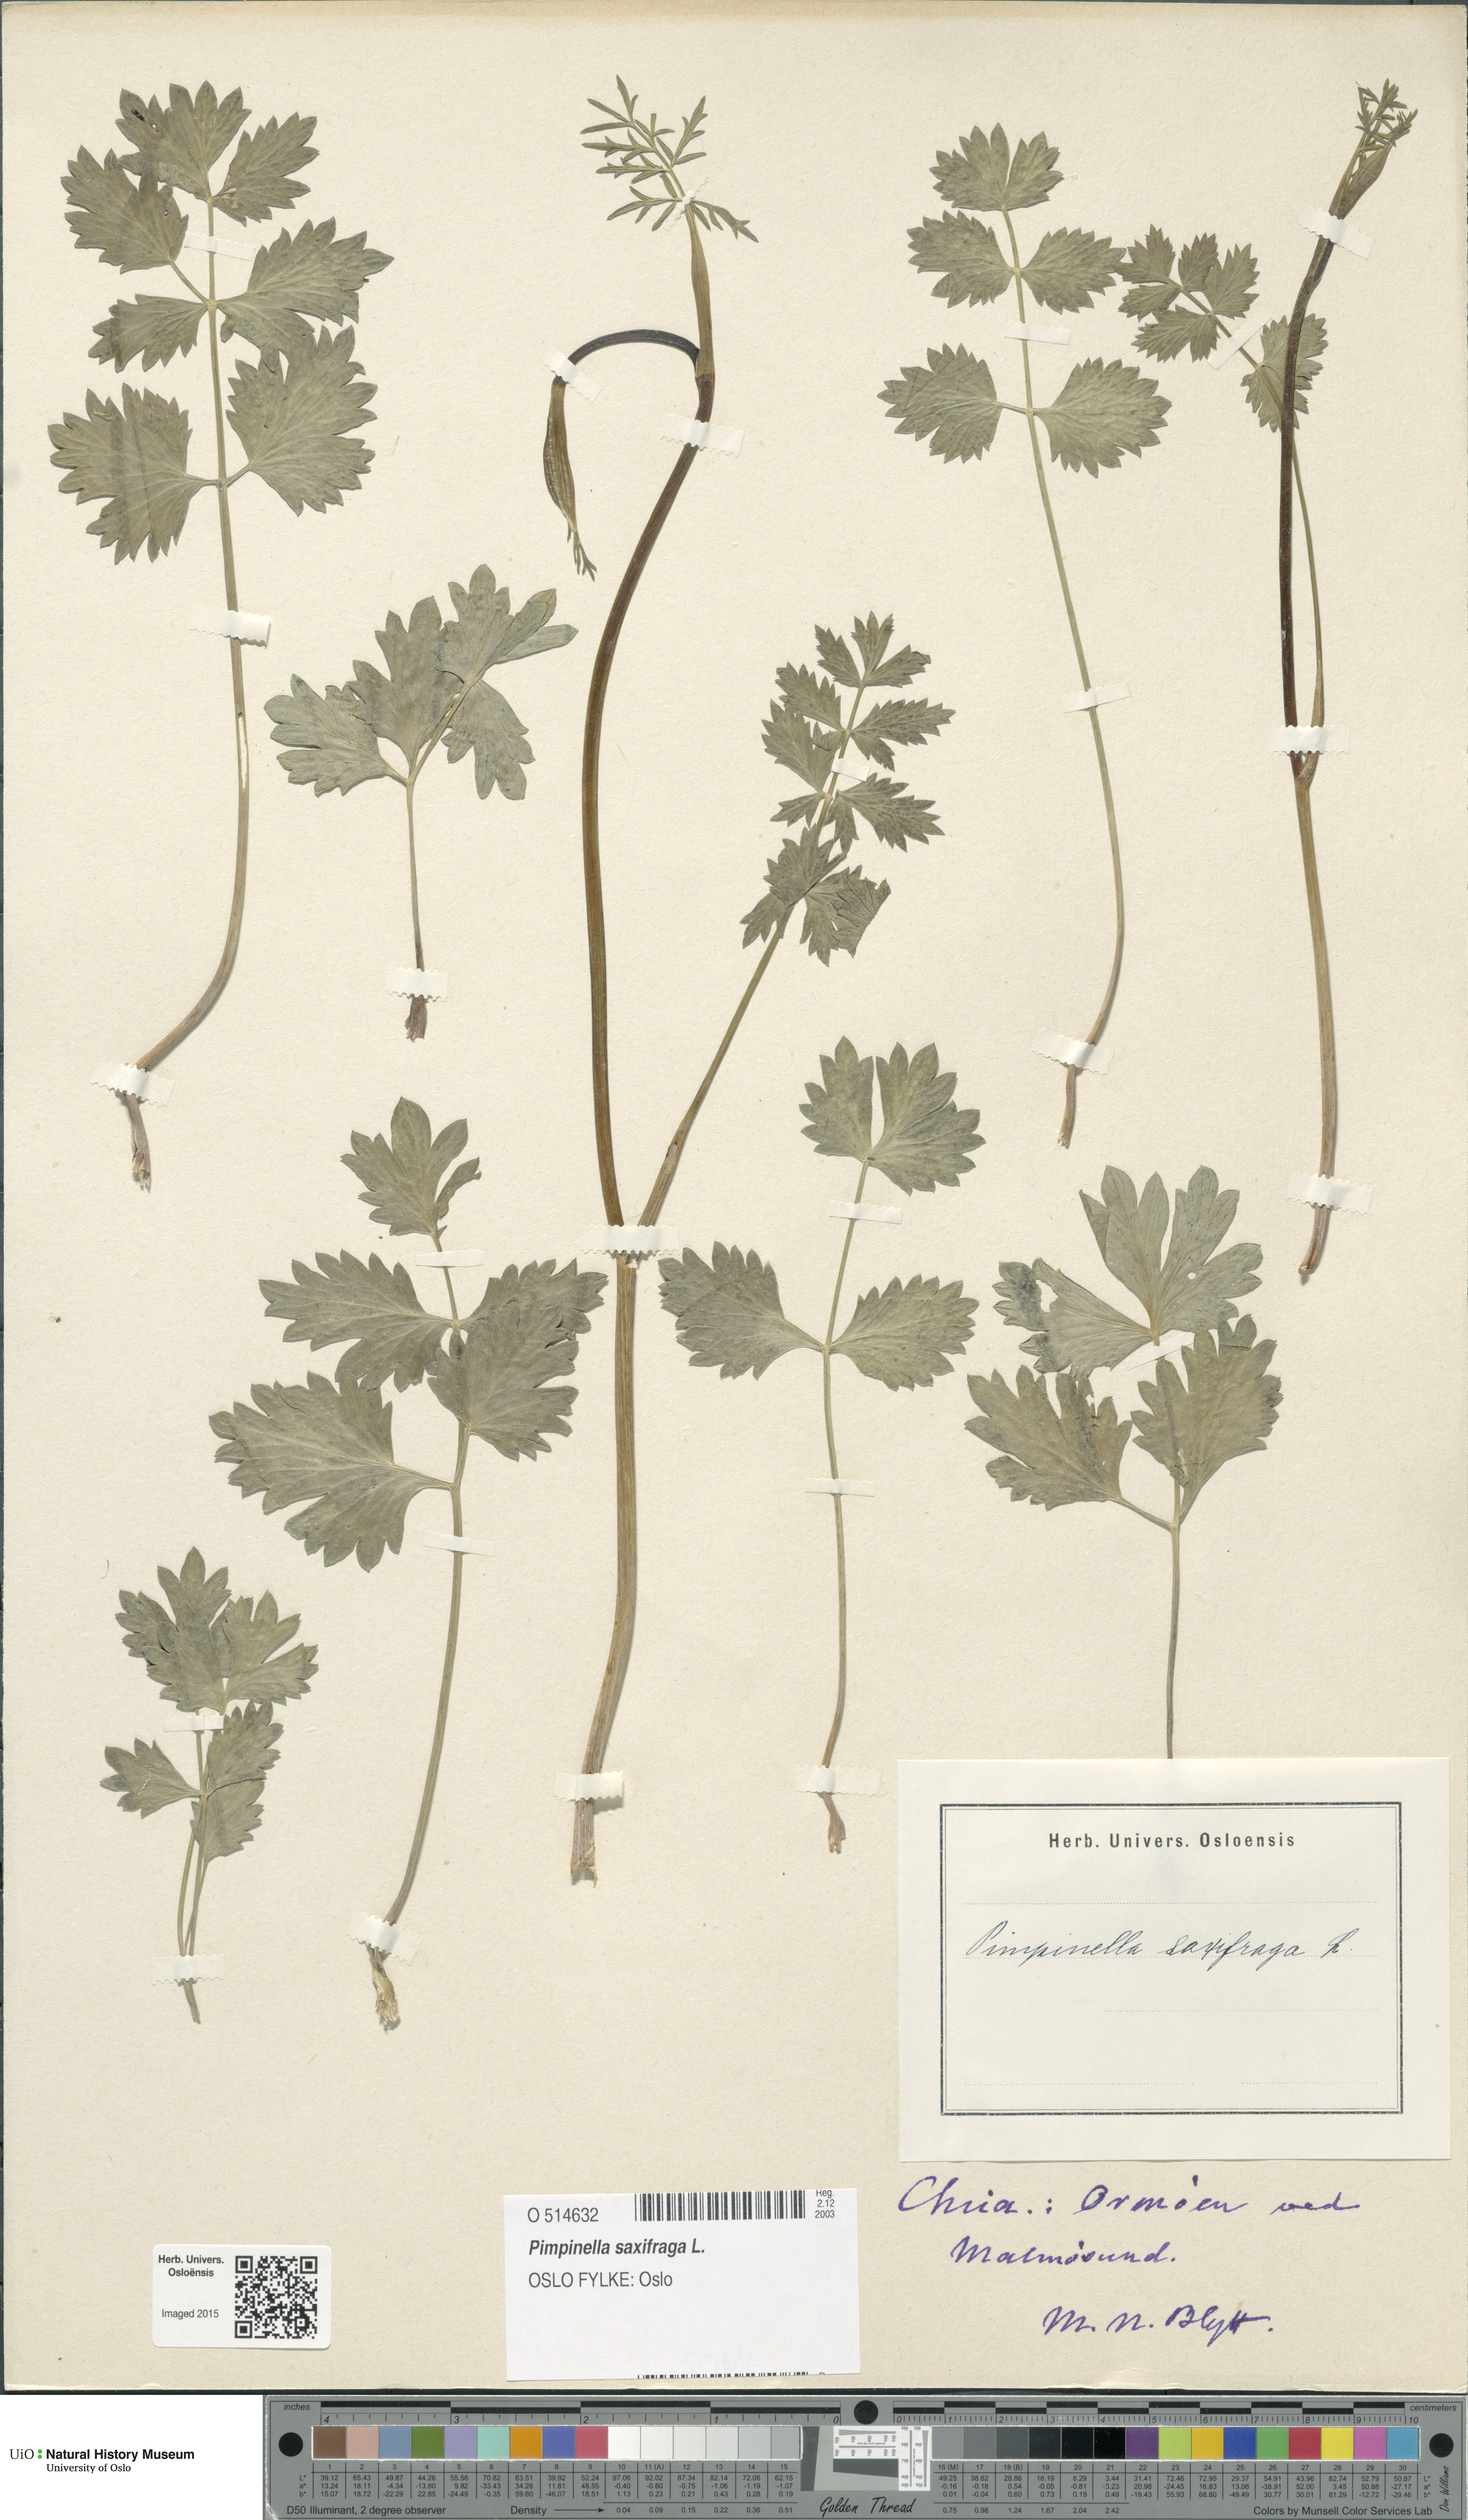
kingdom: Plantae
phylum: Tracheophyta
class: Magnoliopsida
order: Apiales
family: Apiaceae
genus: Pimpinella
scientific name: Pimpinella saxifraga
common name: Burnet-saxifrage
